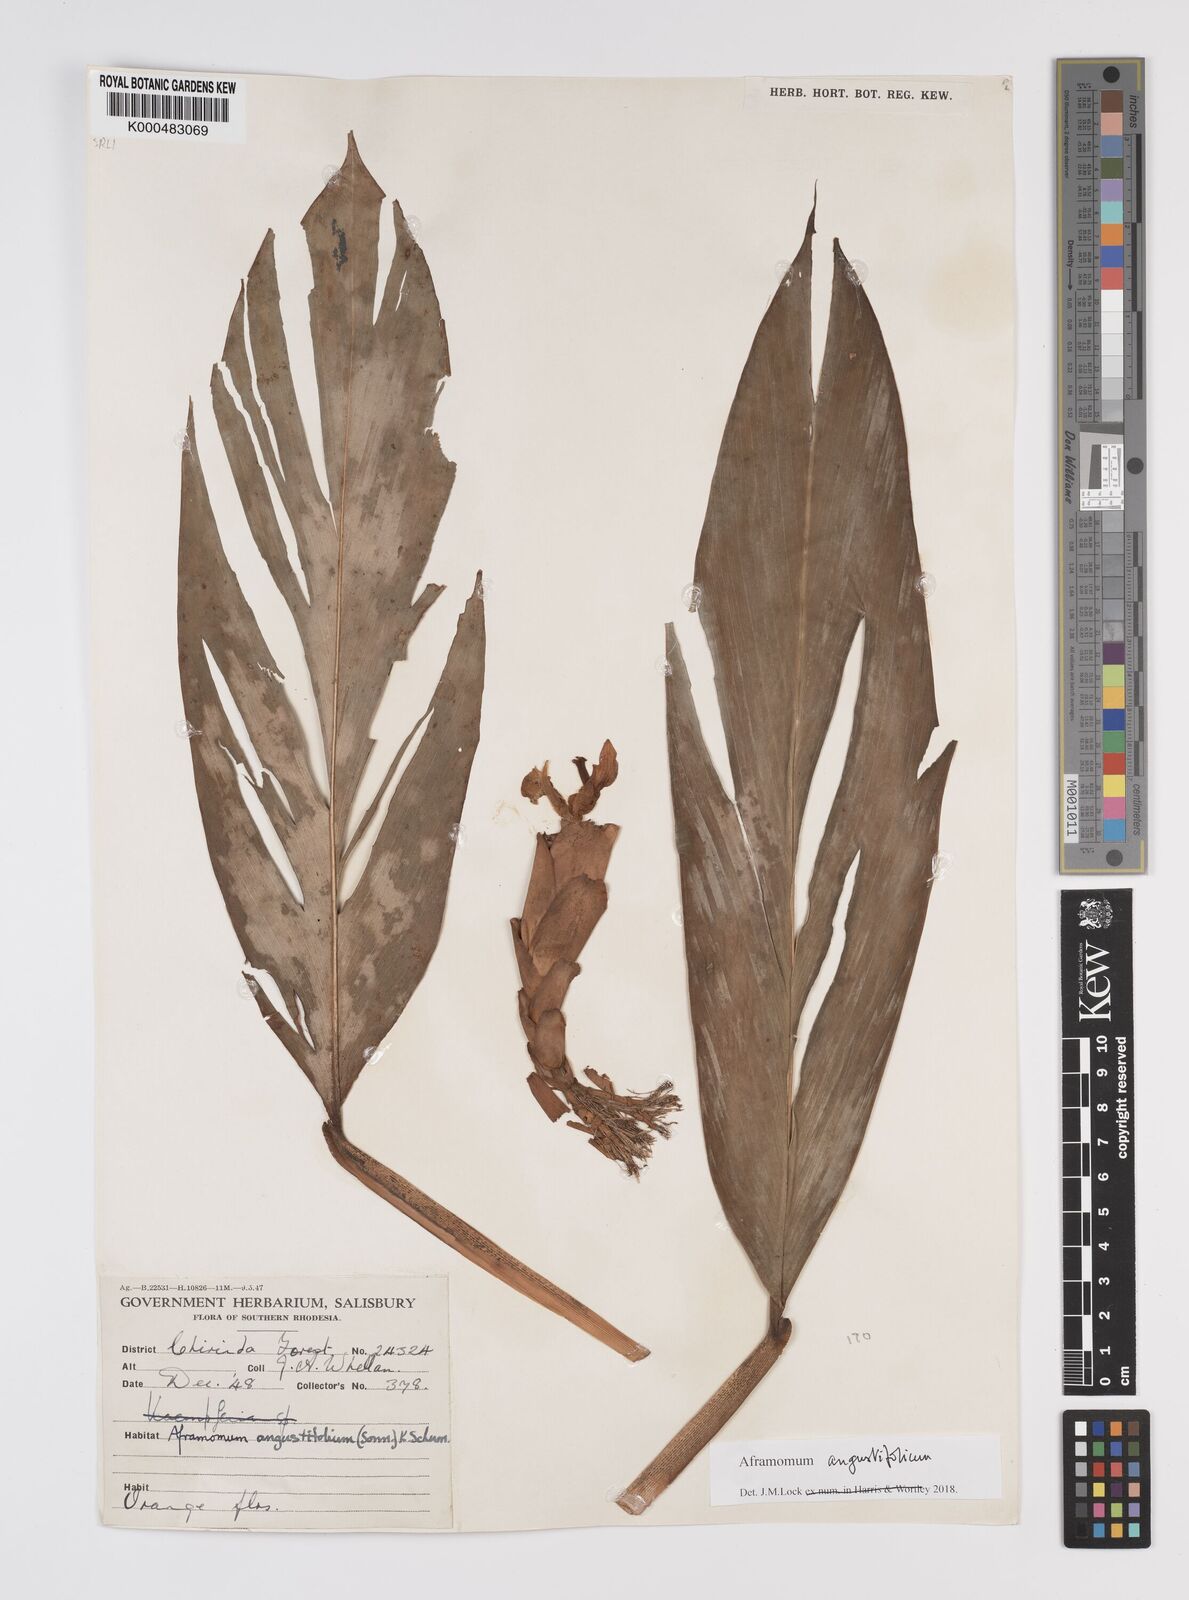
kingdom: Plantae
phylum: Tracheophyta
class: Liliopsida
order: Zingiberales
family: Zingiberaceae
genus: Aframomum
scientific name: Aframomum angustifolium
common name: Guinea grains
